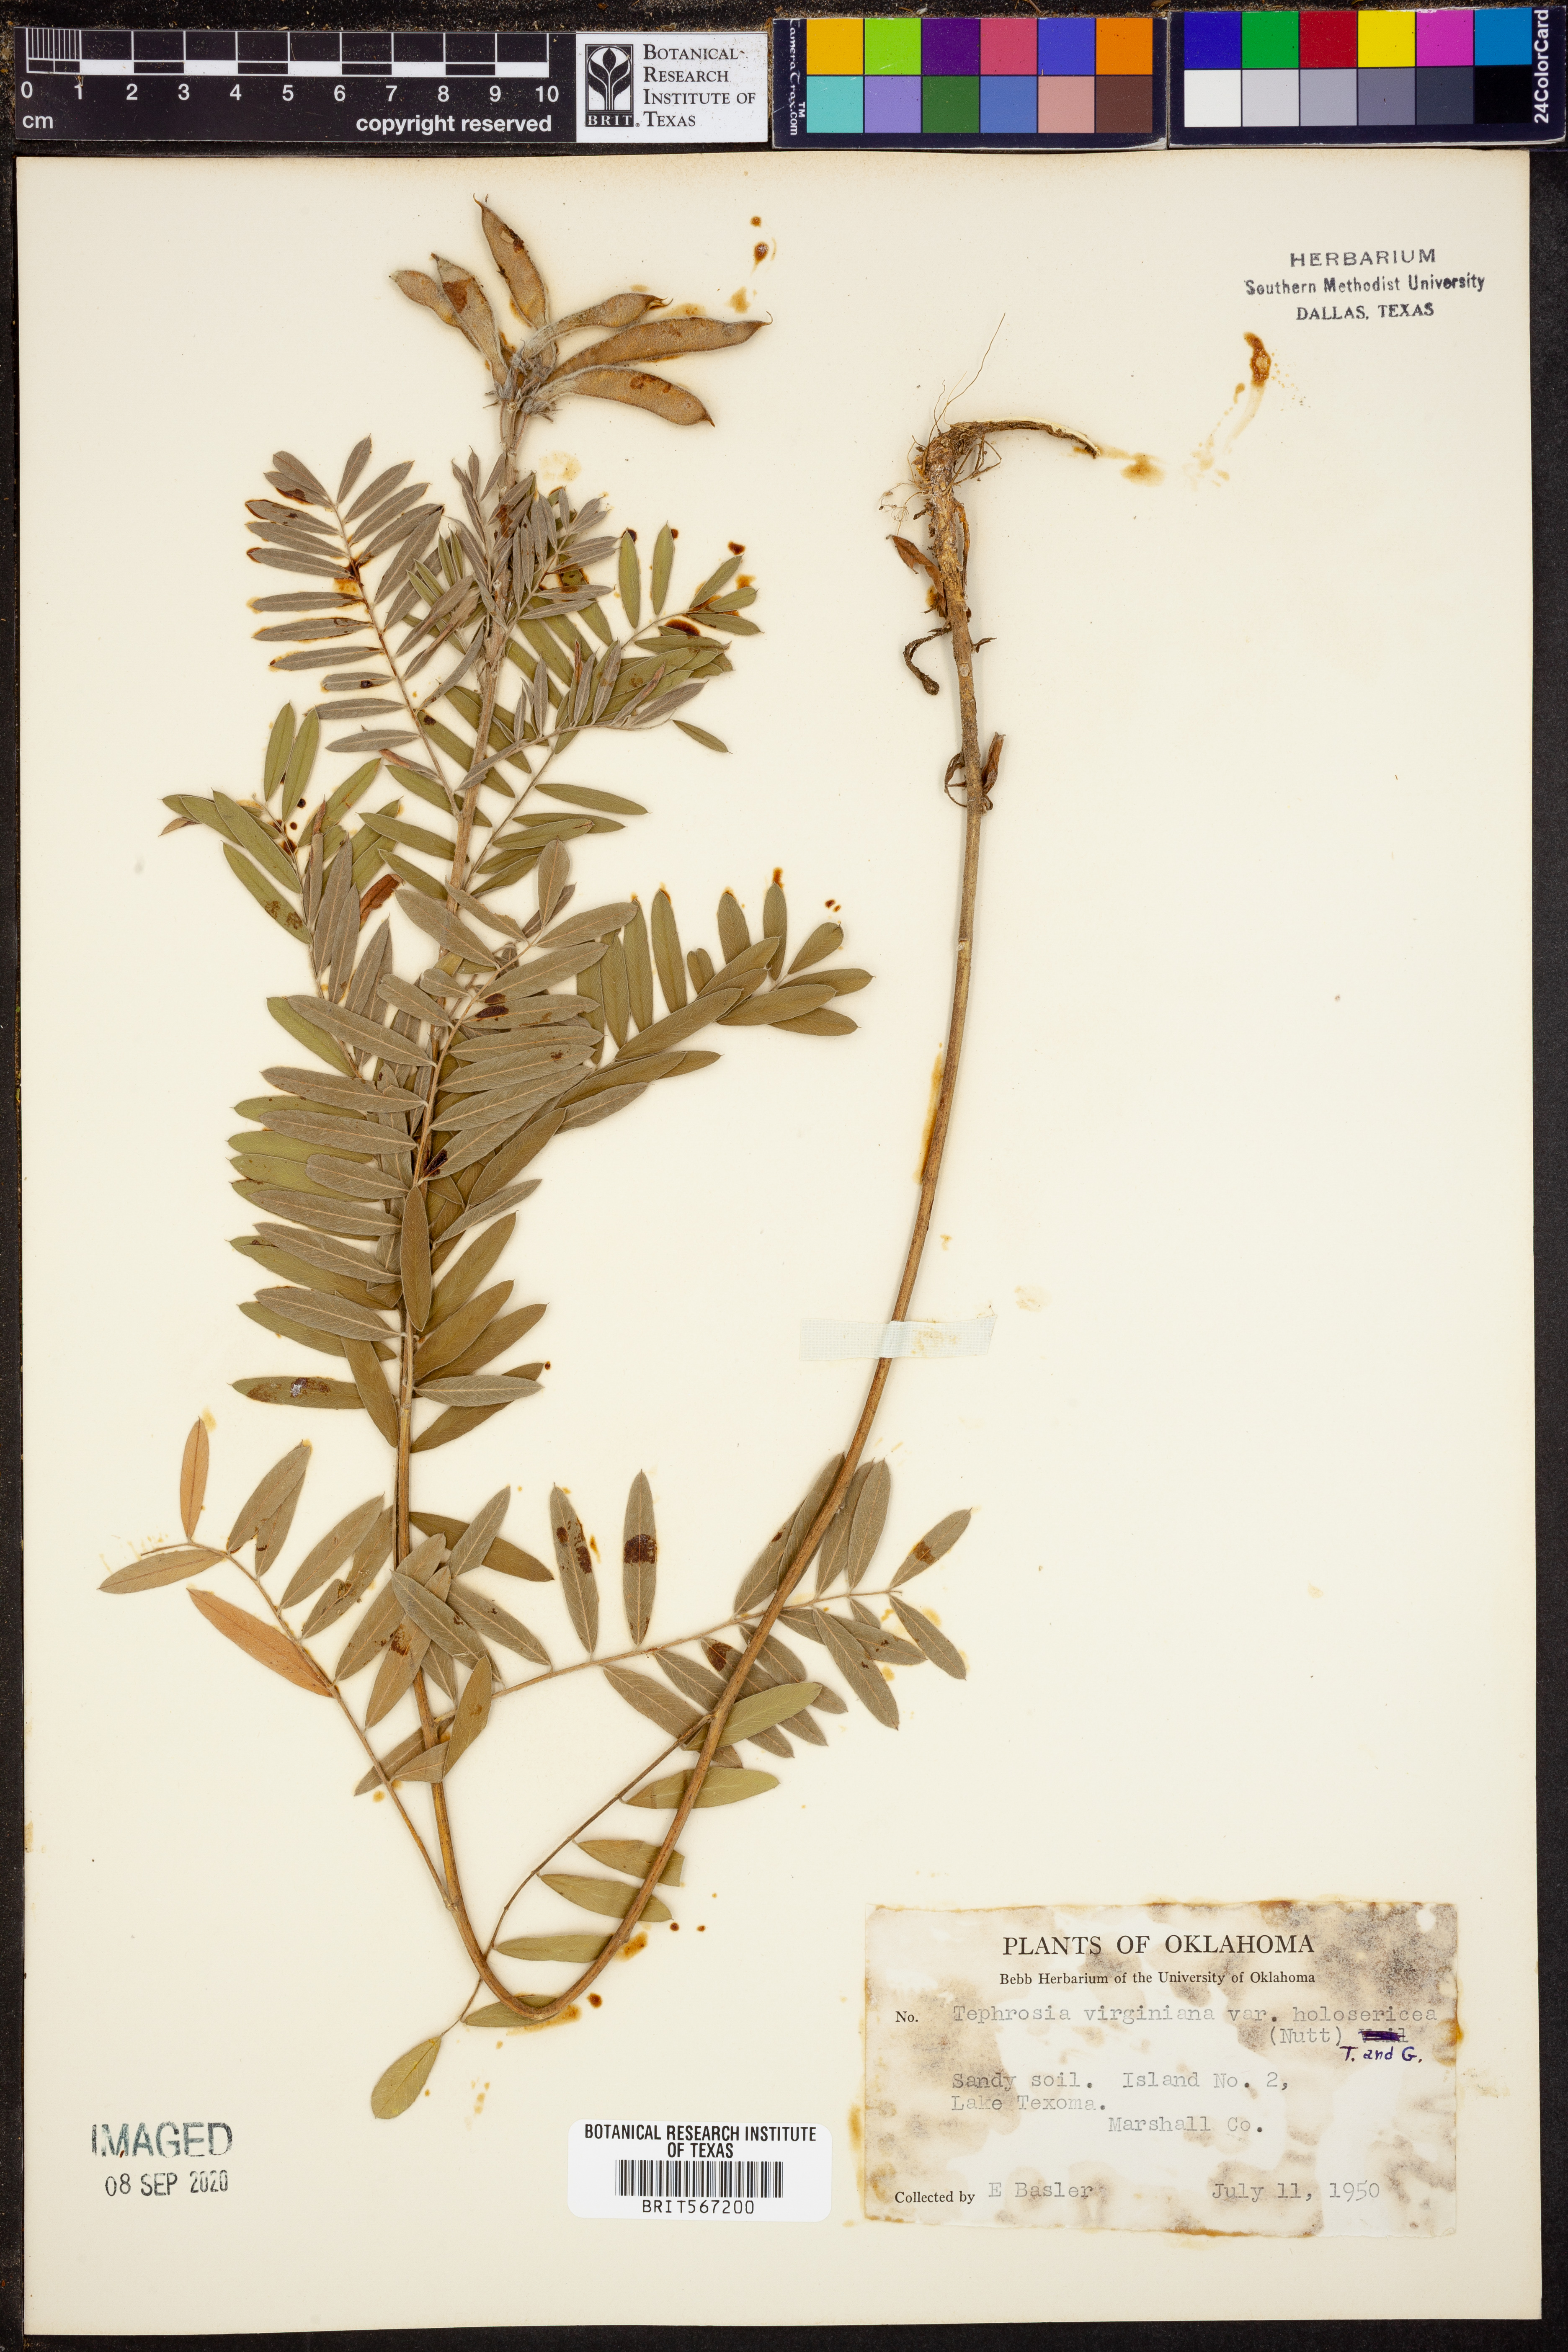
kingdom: Plantae
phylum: Tracheophyta
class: Magnoliopsida
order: Fabales
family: Fabaceae
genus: Tephrosia
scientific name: Tephrosia virginiana
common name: Rabbit-pea
